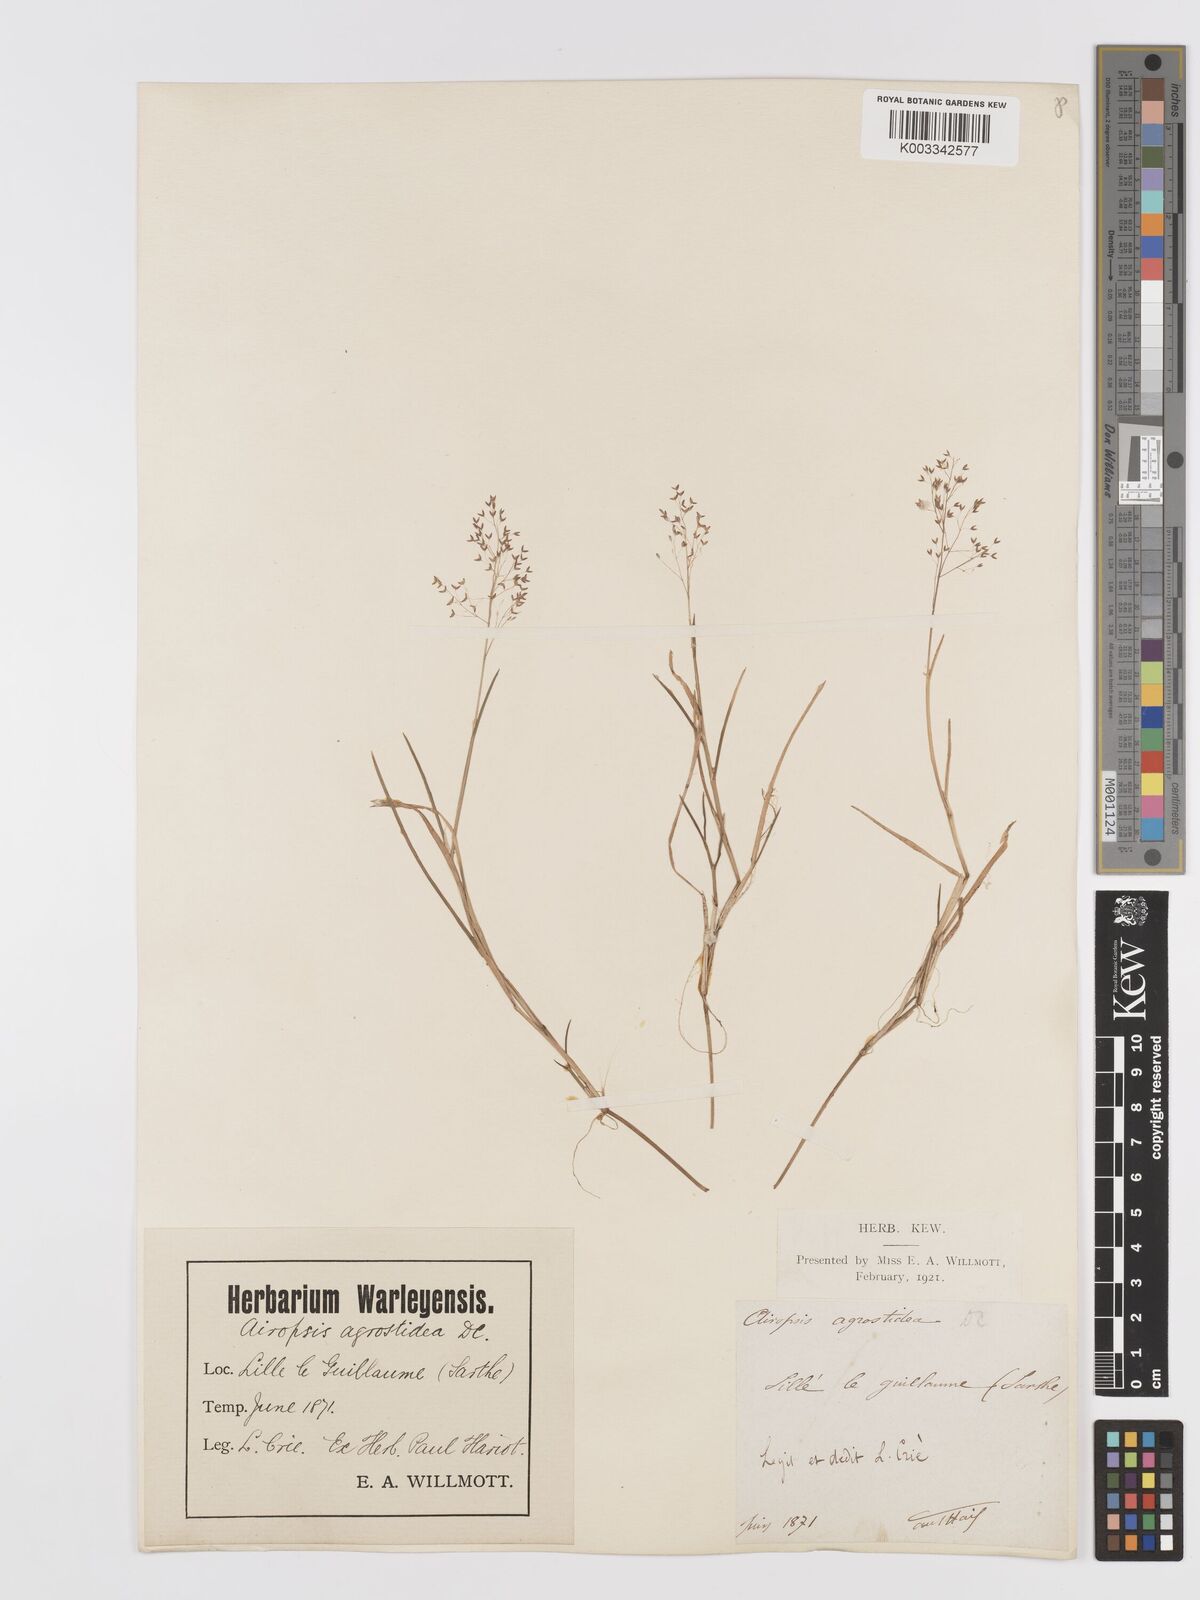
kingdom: Plantae
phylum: Tracheophyta
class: Liliopsida
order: Poales
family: Poaceae
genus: Agrostis
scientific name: Agrostis
